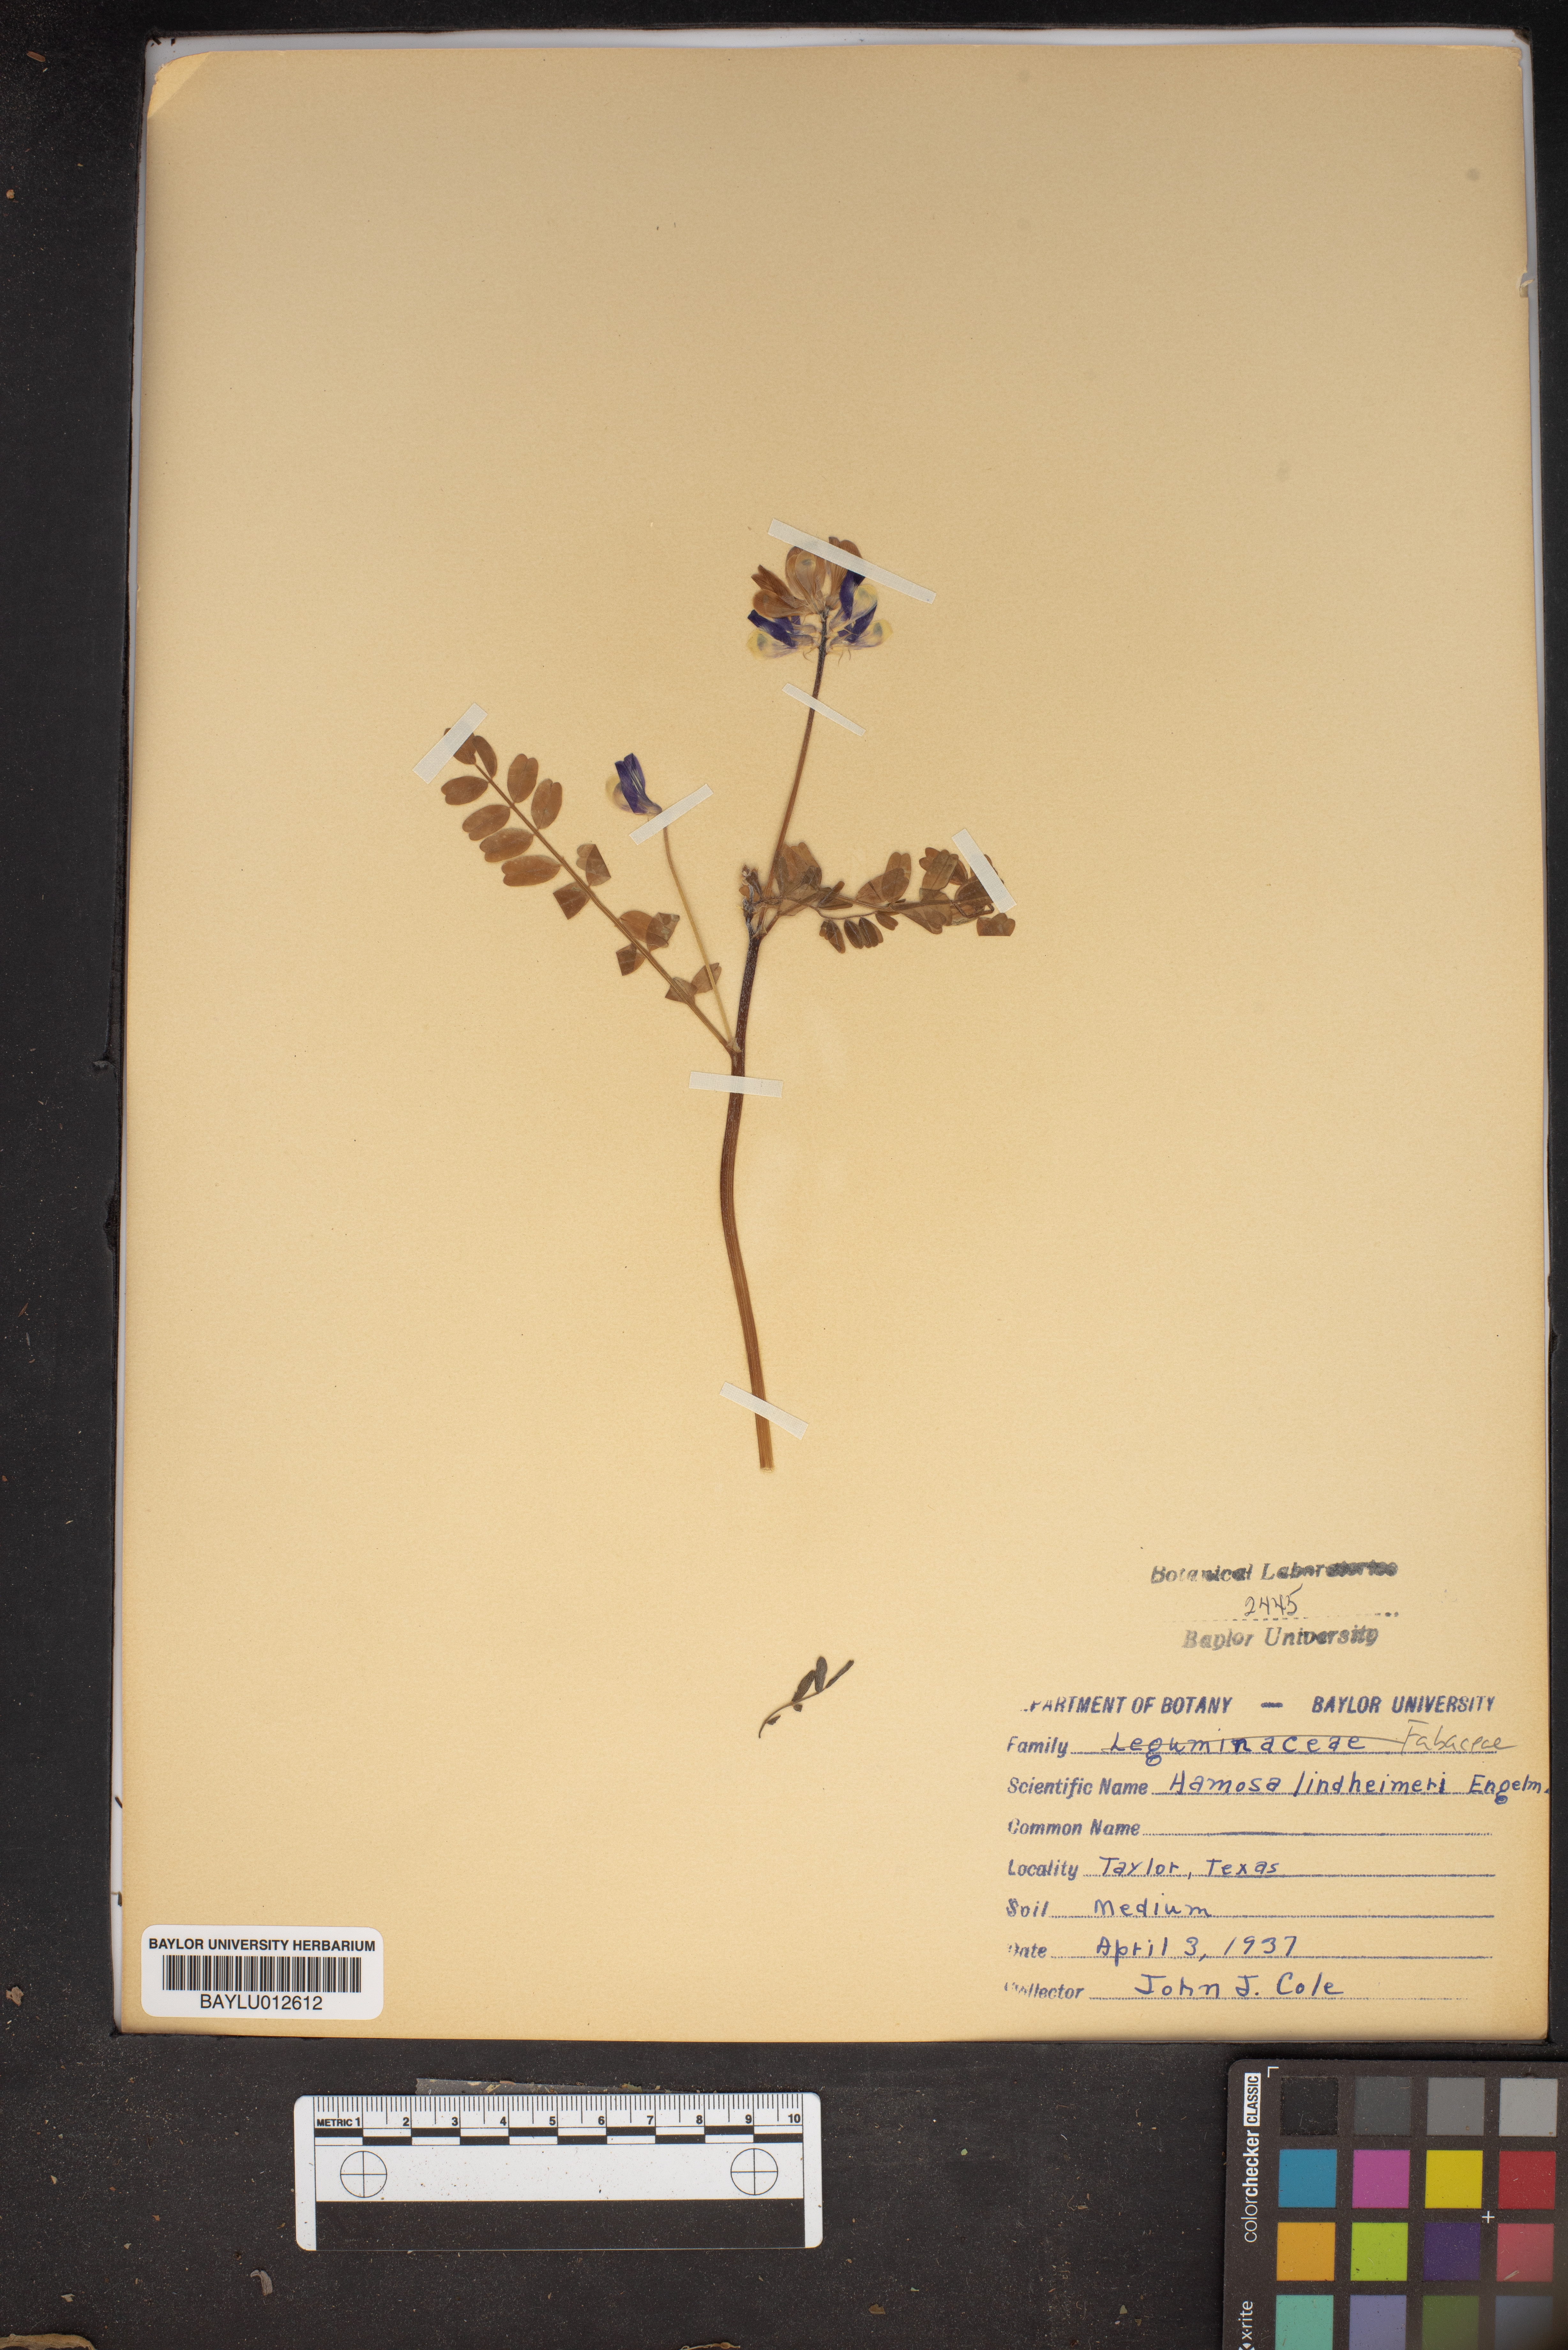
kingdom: Plantae
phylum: Tracheophyta
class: Magnoliopsida
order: Fabales
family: Fabaceae
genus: Astragalus
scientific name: Astragalus lindheimeri
